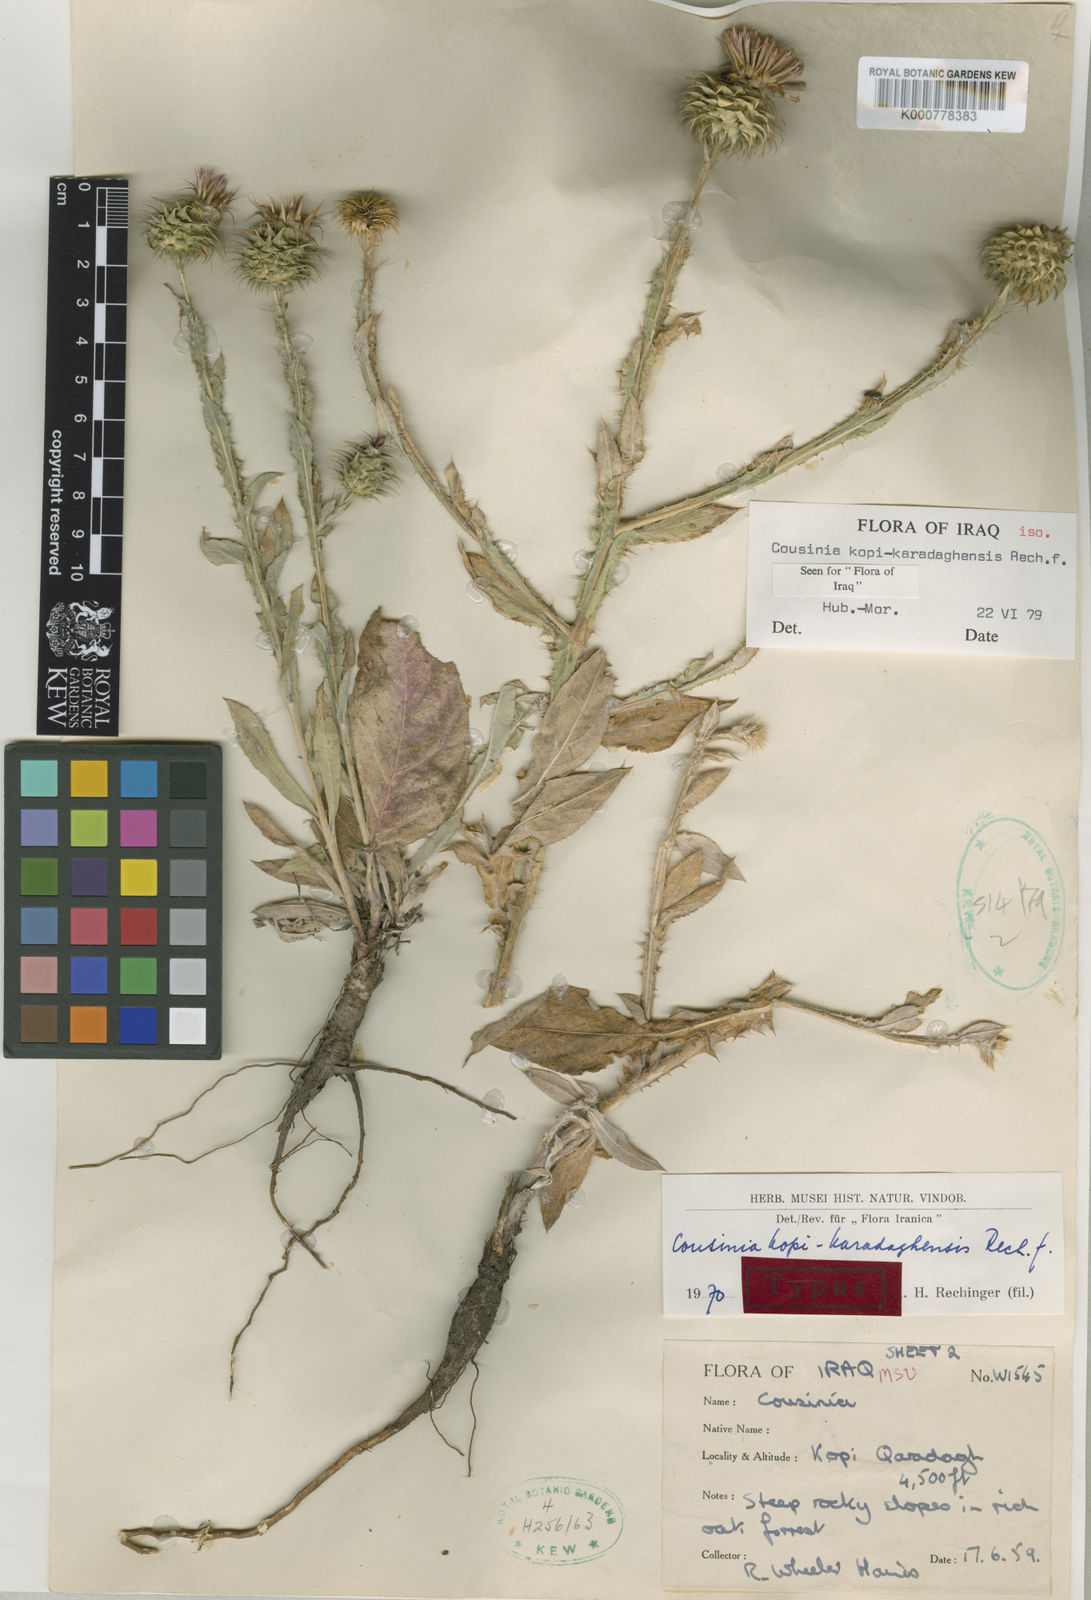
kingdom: Plantae
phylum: Tracheophyta
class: Magnoliopsida
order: Asterales
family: Asteraceae
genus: Cousinia
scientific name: Cousinia kopi-karadaghensis
